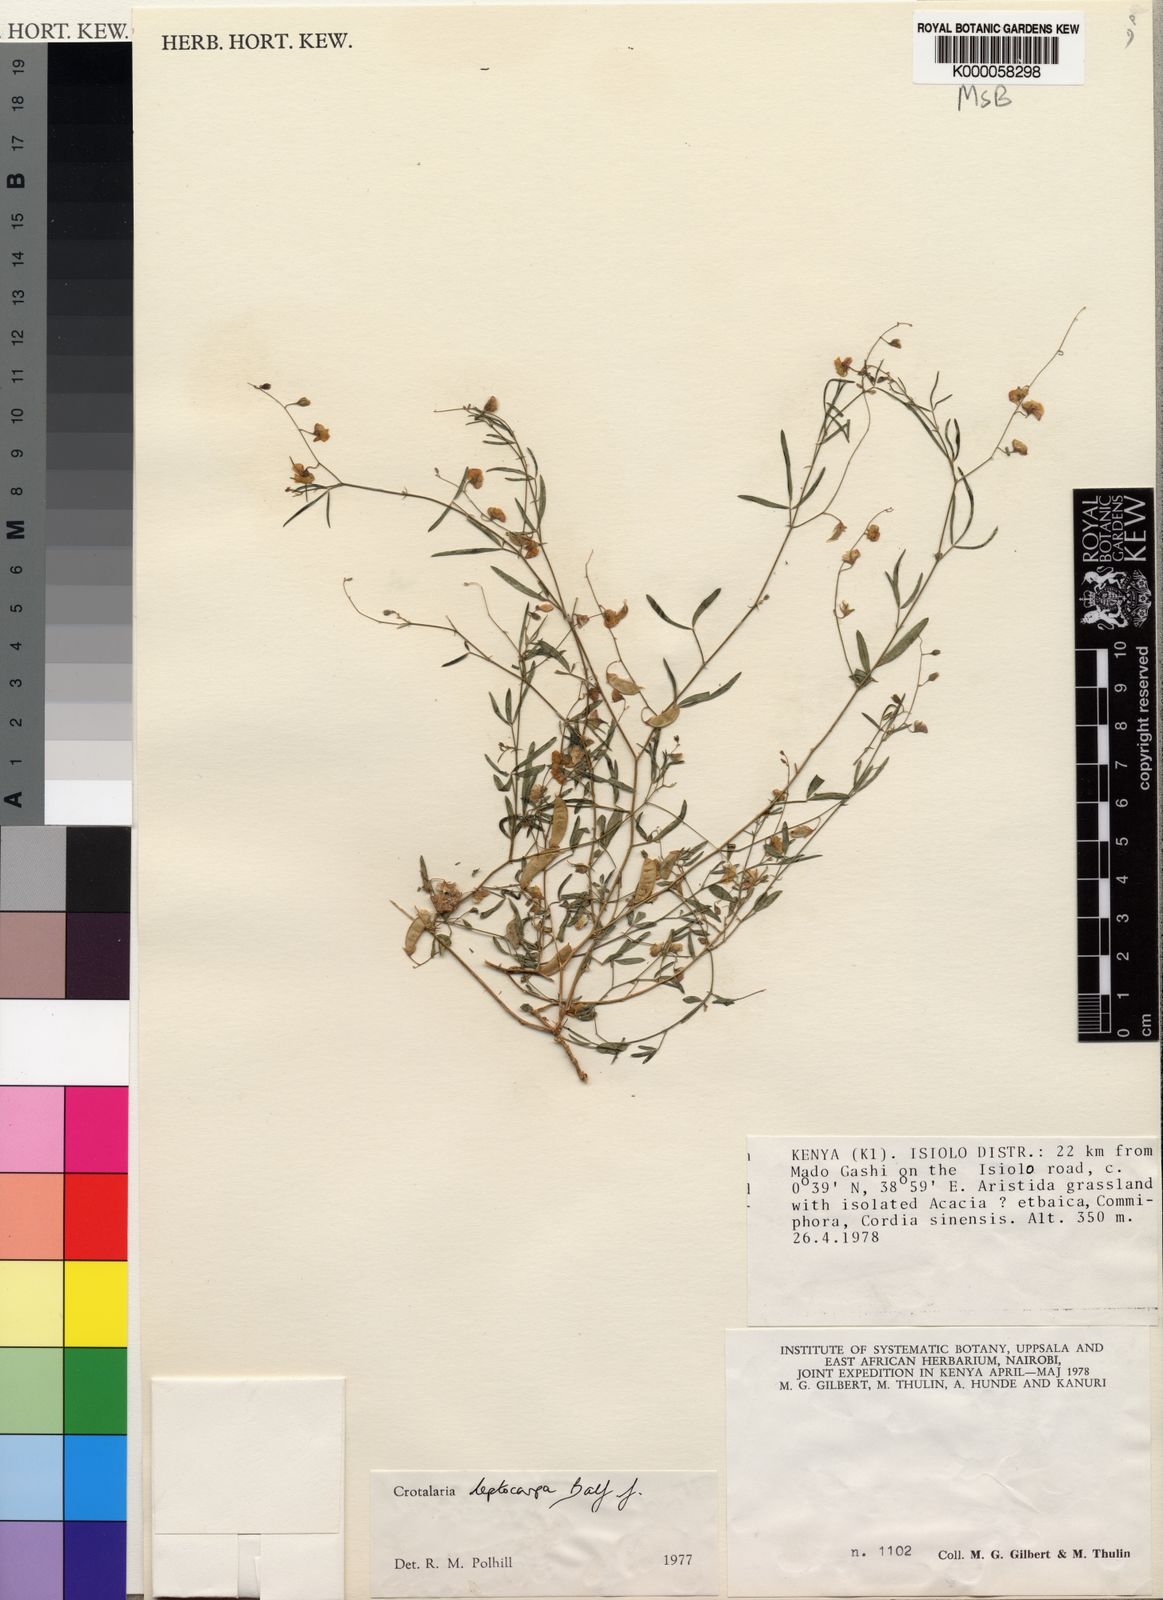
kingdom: Plantae
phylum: Tracheophyta
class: Magnoliopsida
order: Fabales
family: Fabaceae
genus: Crotalaria
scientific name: Crotalaria leptocarpa
